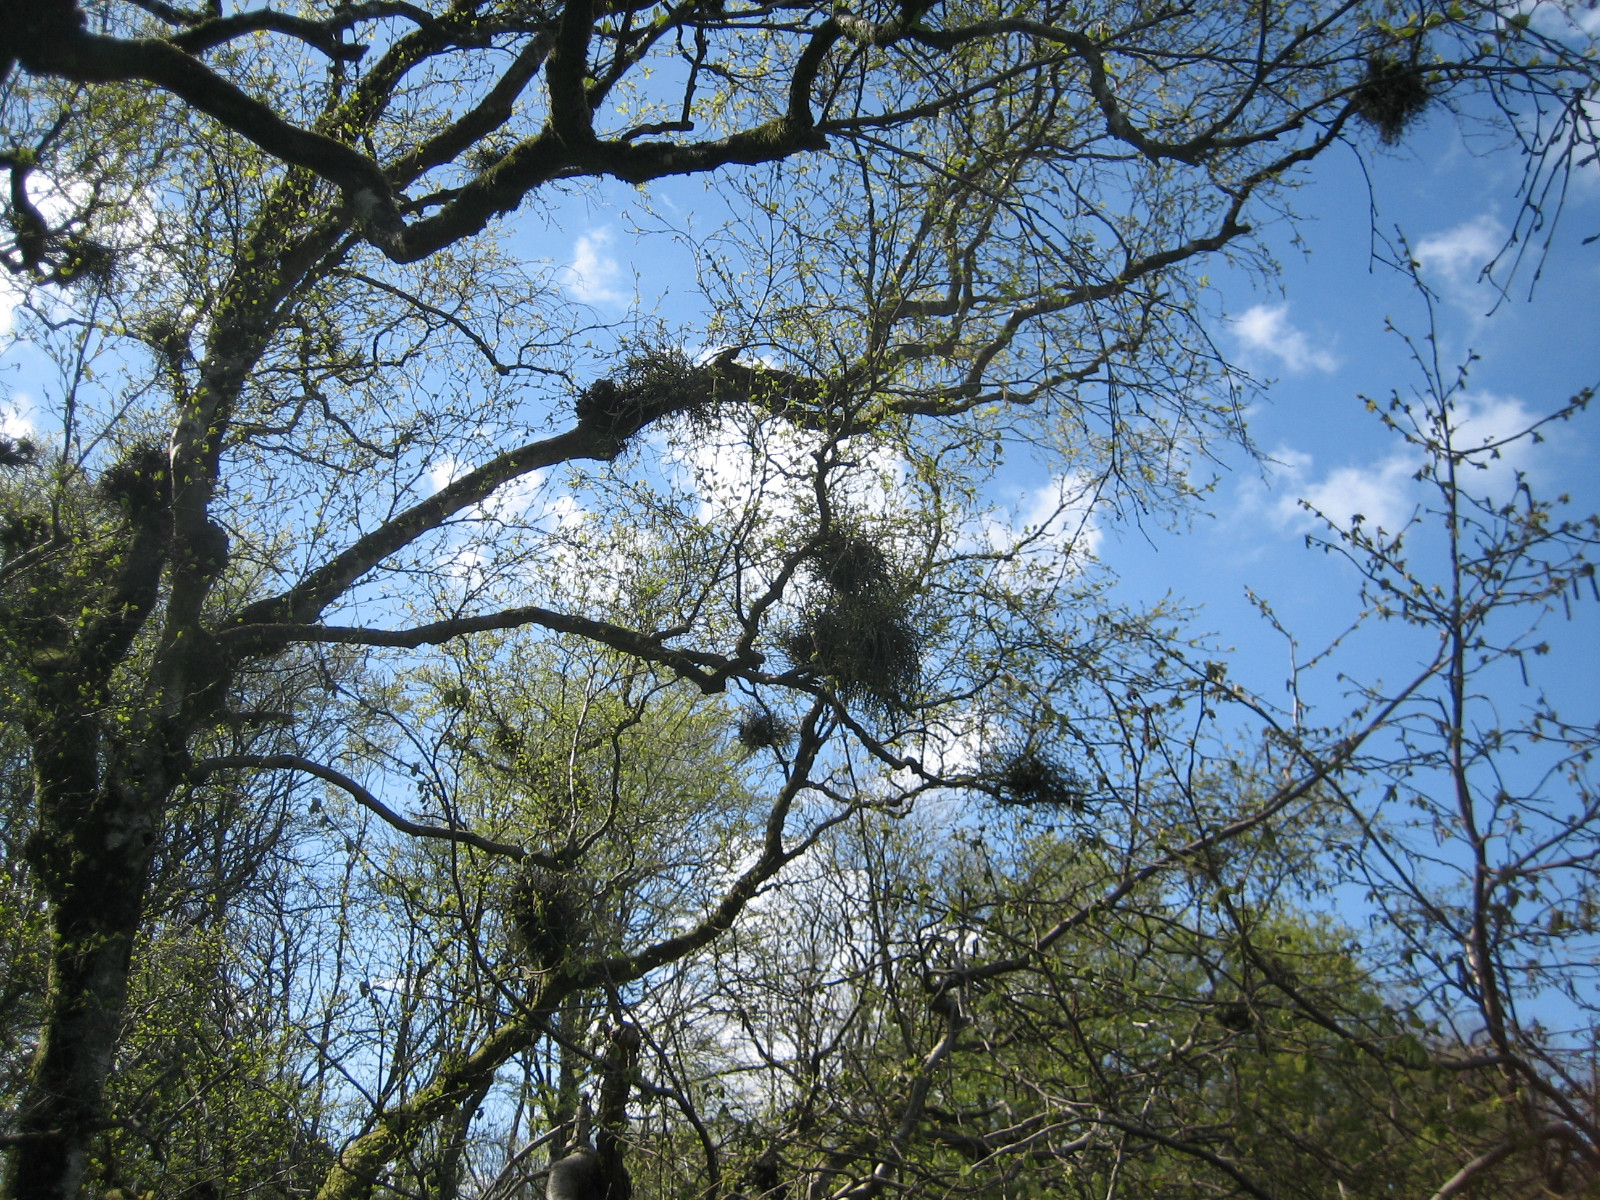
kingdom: Fungi
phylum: Ascomycota
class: Taphrinomycetes
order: Taphrinales
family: Taphrinaceae
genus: Taphrina
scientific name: Taphrina betulina
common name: hekse-sækdug
